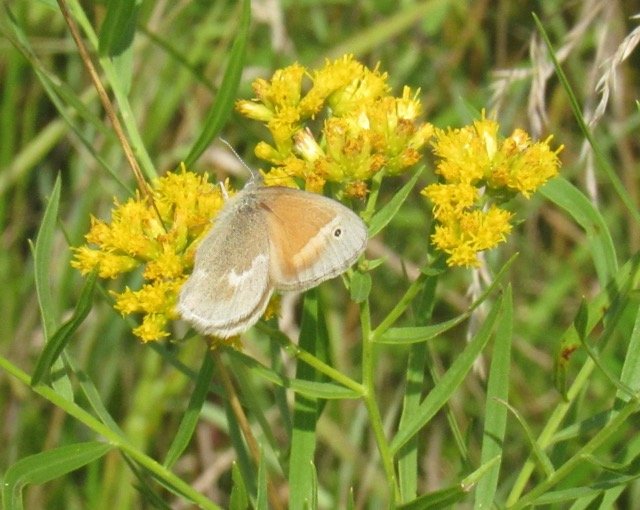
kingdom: Animalia
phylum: Arthropoda
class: Insecta
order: Lepidoptera
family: Nymphalidae
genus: Coenonympha
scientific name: Coenonympha tullia
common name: Large Heath
